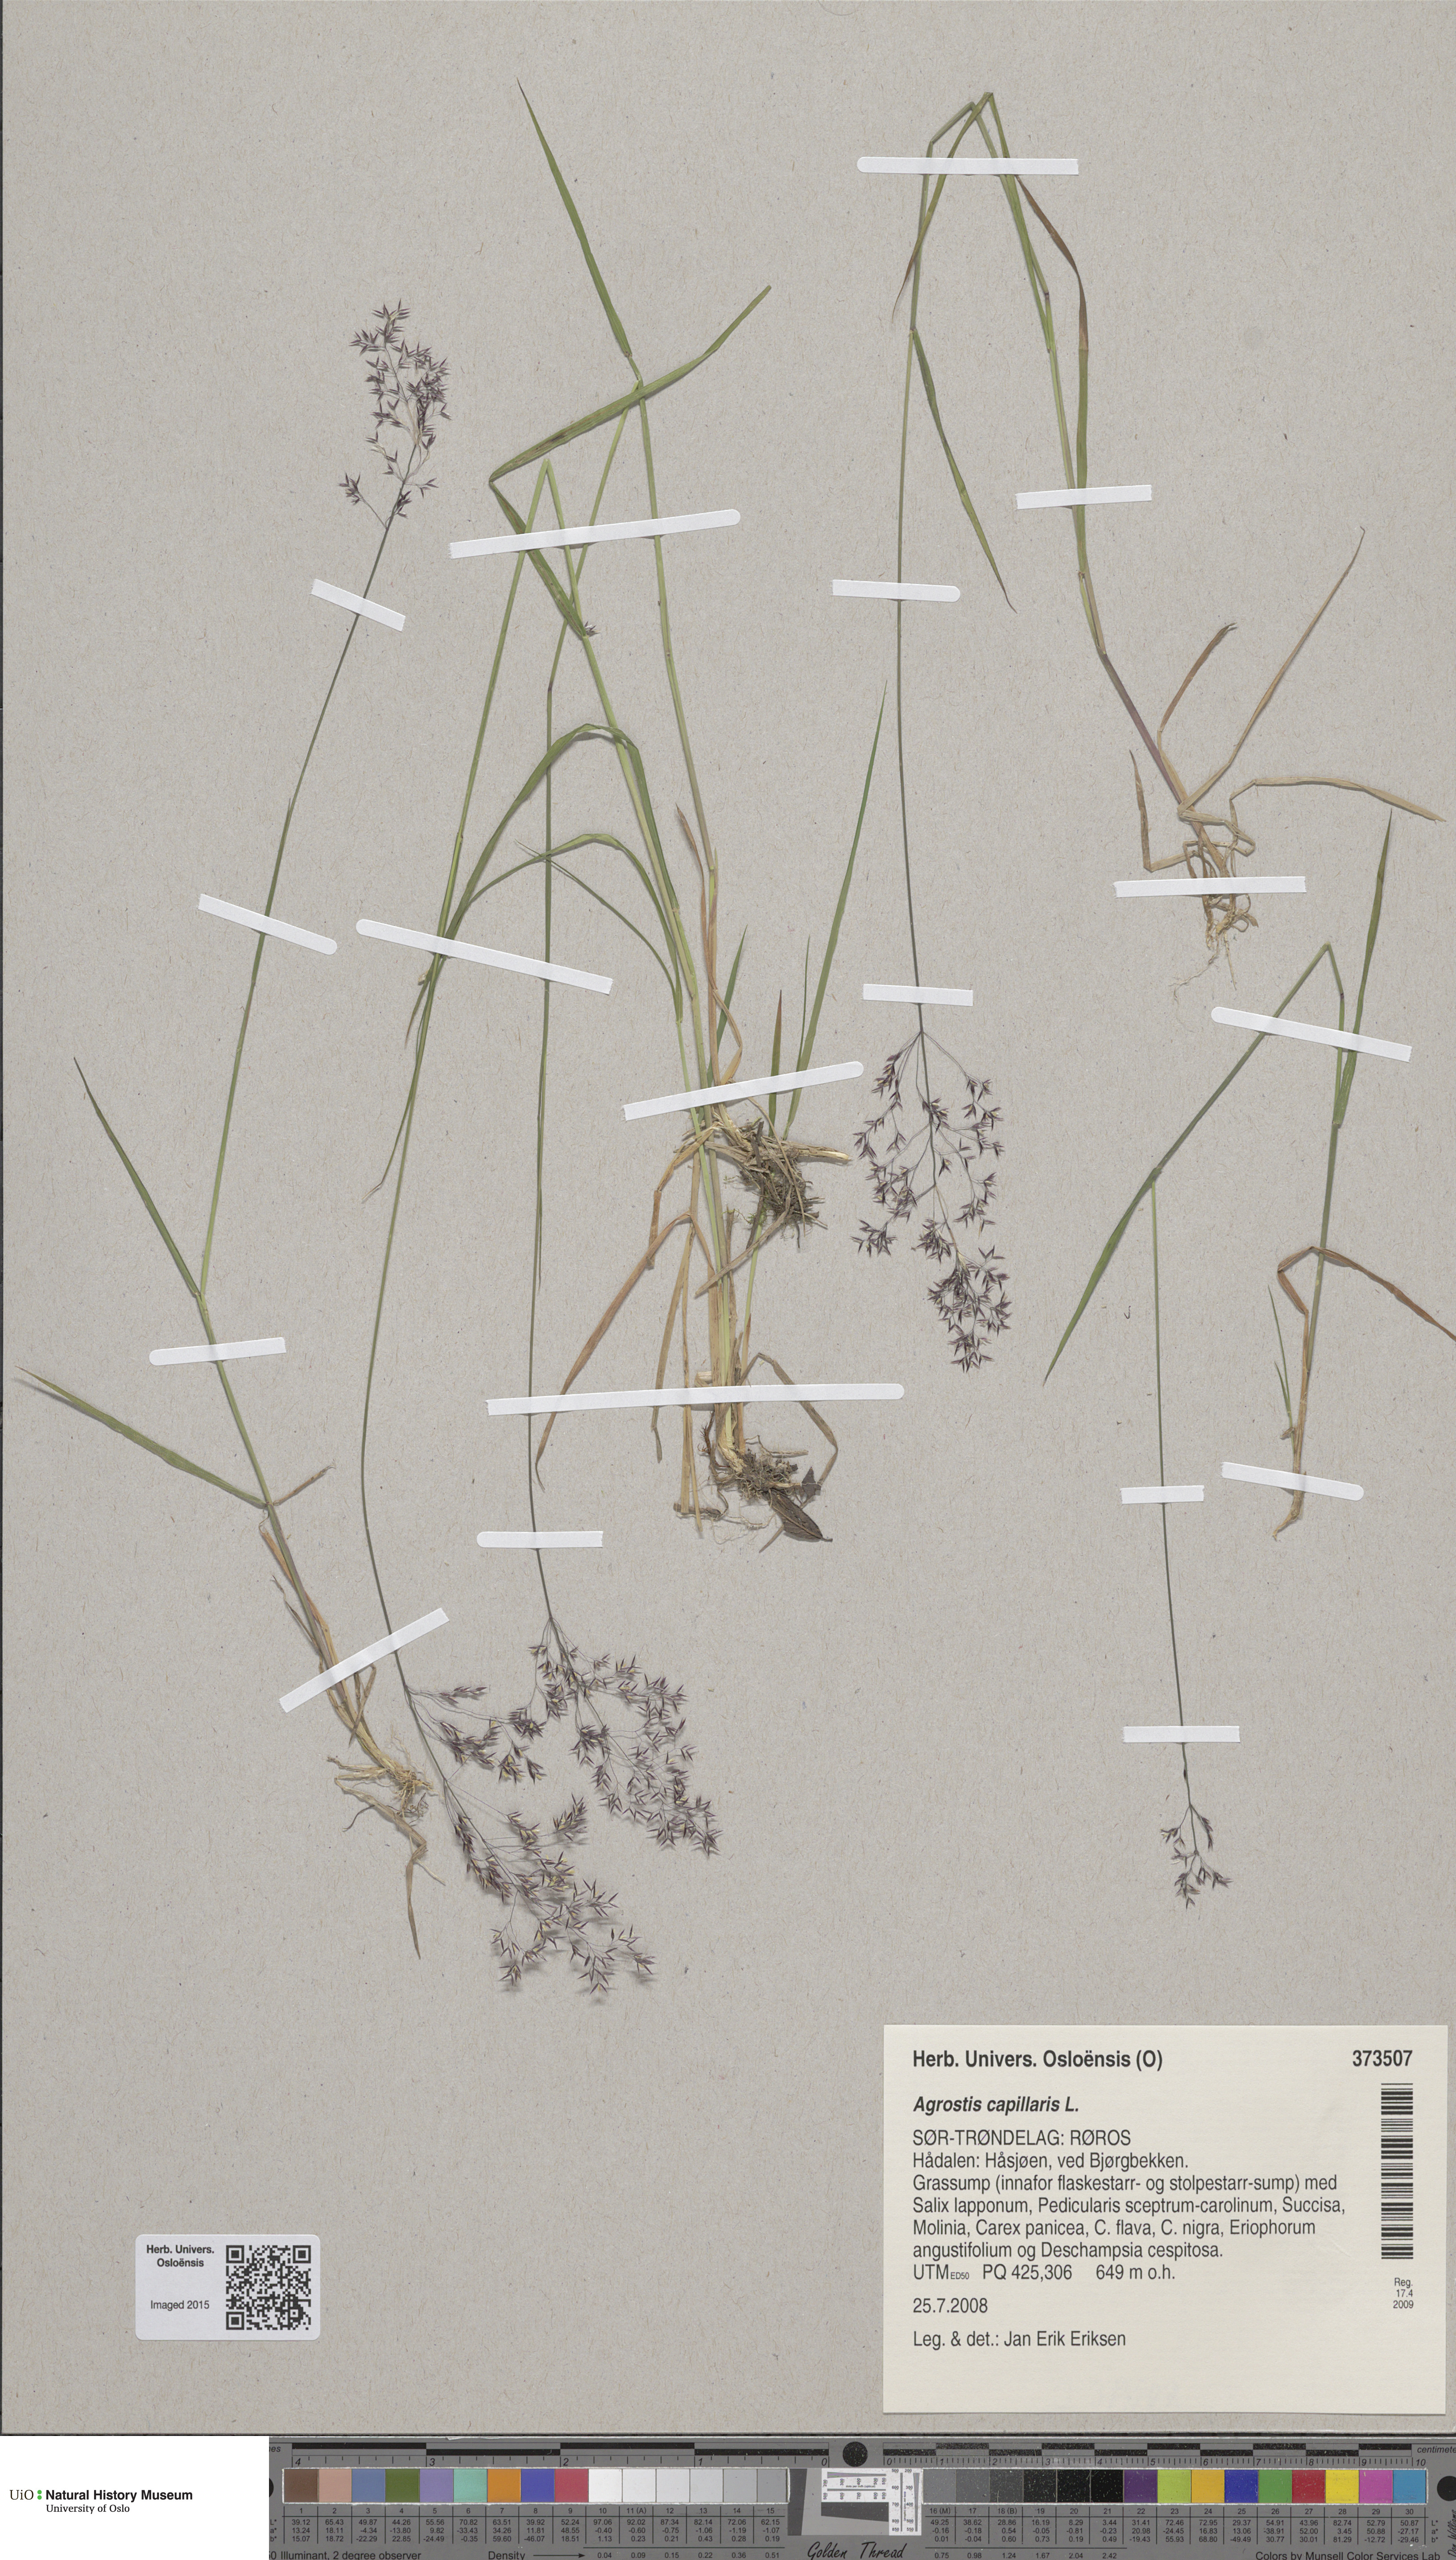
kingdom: Plantae
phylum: Tracheophyta
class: Liliopsida
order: Poales
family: Poaceae
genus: Agrostis
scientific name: Agrostis capillaris
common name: Colonial bentgrass
